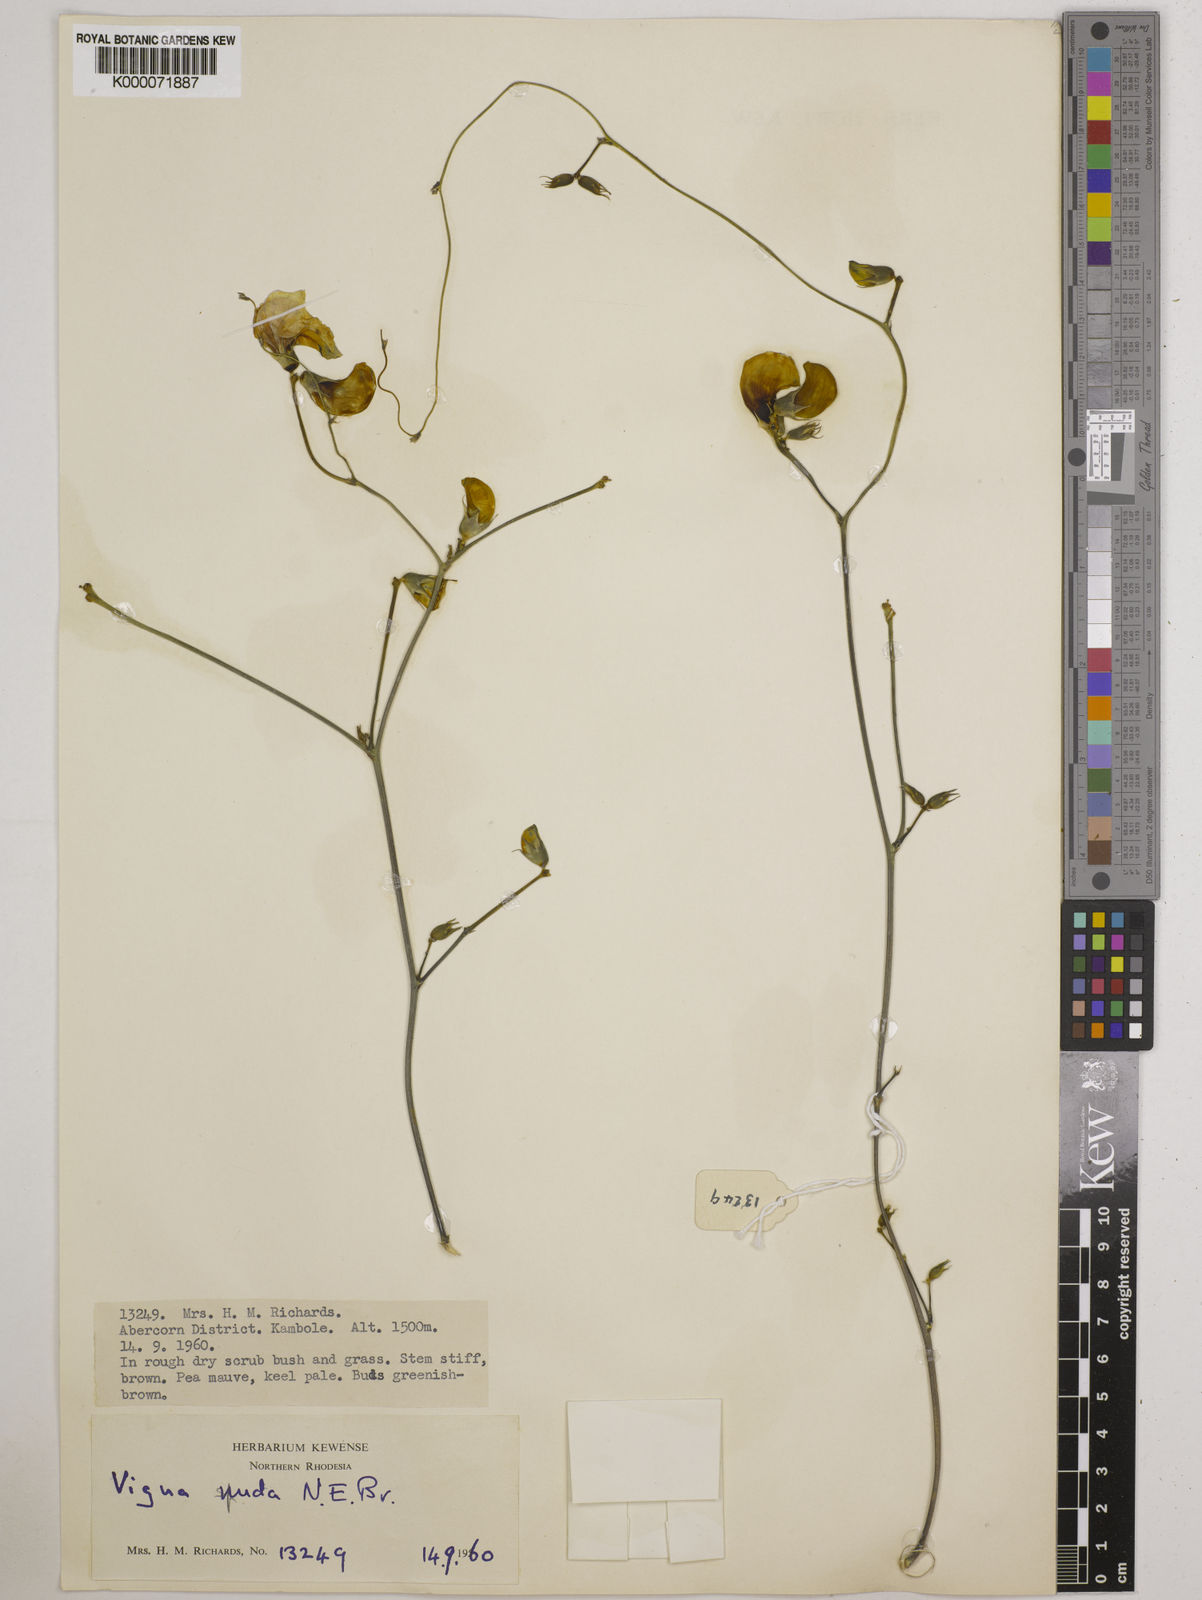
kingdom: Plantae
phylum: Tracheophyta
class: Magnoliopsida
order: Fabales
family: Fabaceae
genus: Vigna
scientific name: Vigna antunesii
